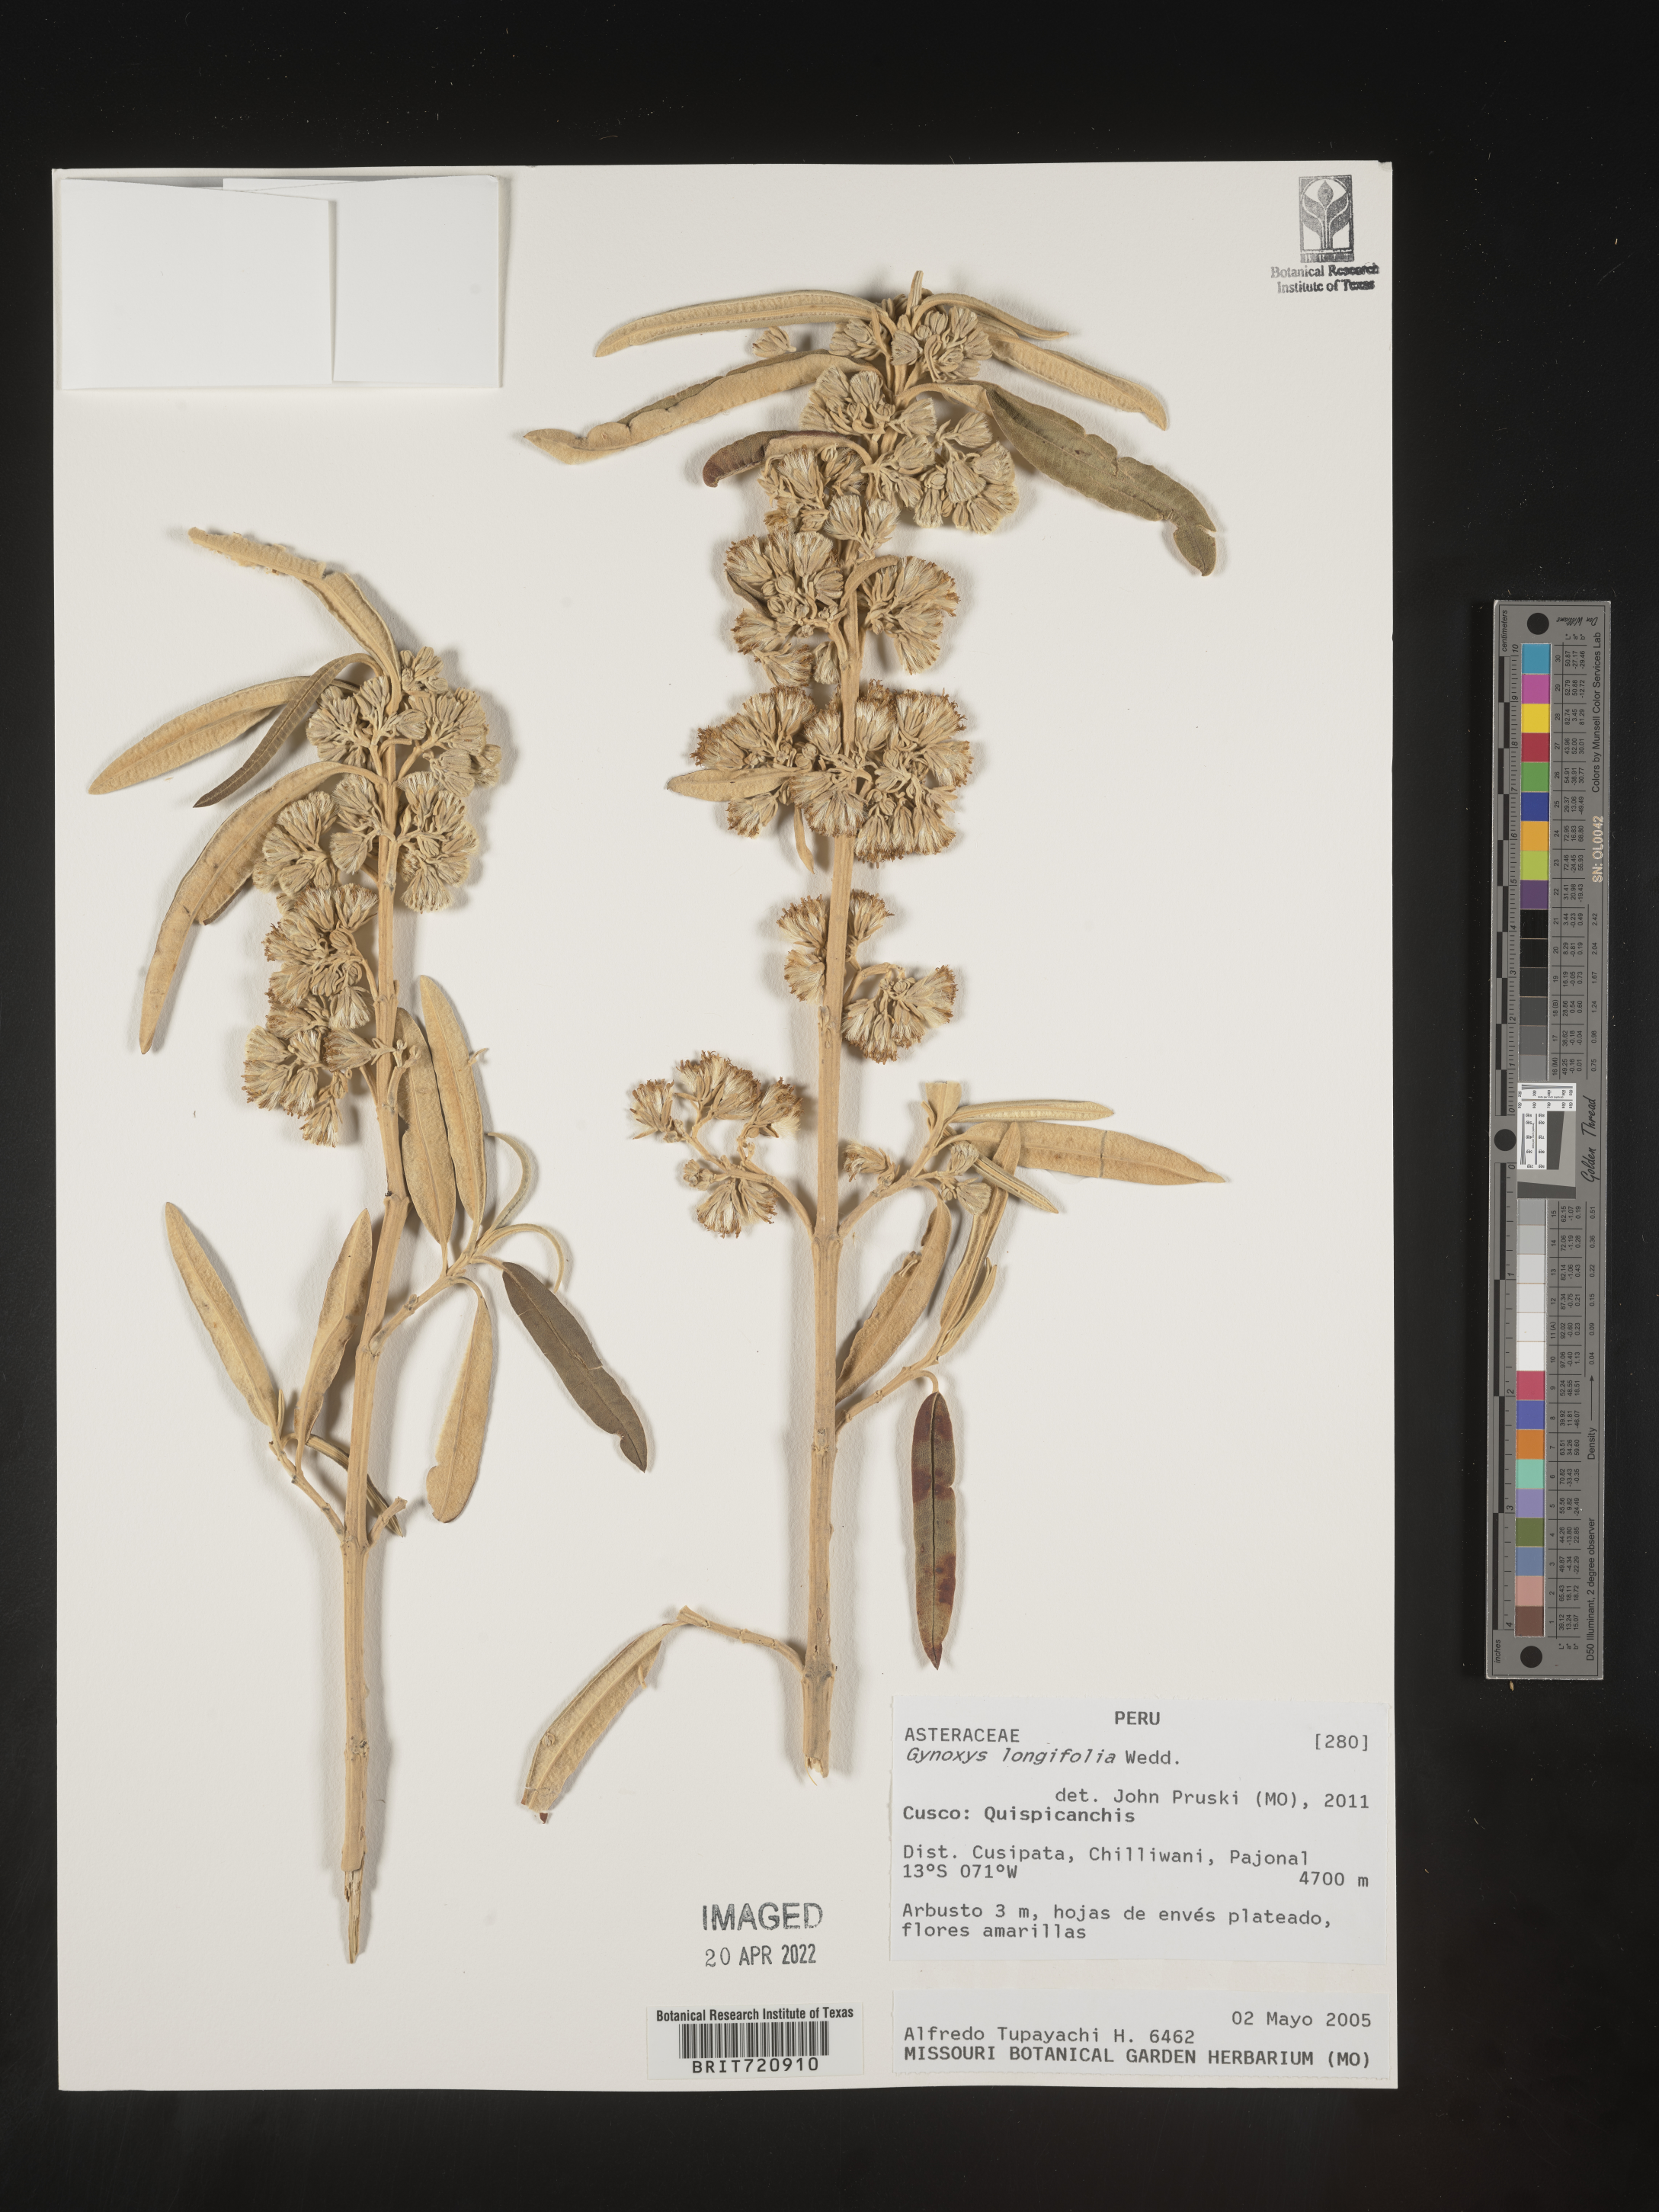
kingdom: Plantae
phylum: Tracheophyta
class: Magnoliopsida
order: Asterales
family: Asteraceae
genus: Gynoxys
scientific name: Gynoxys
